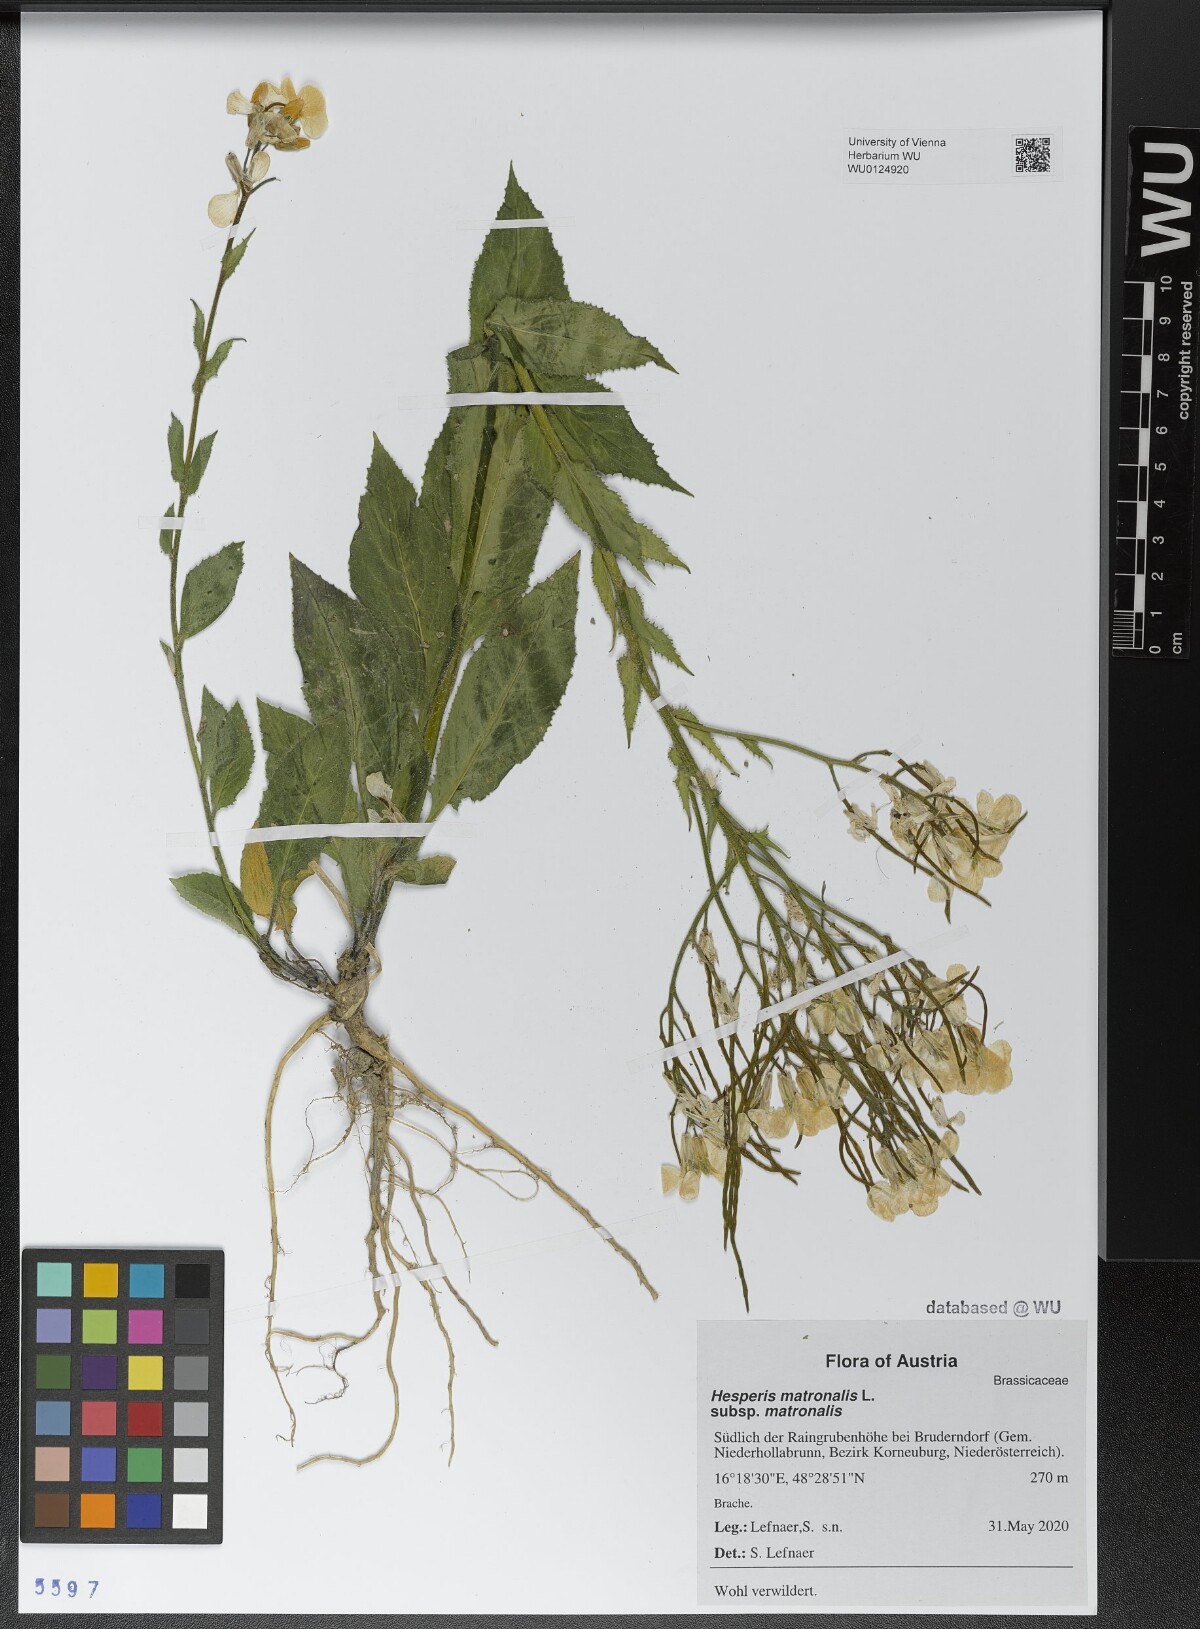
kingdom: Plantae
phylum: Tracheophyta
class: Magnoliopsida
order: Brassicales
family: Brassicaceae
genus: Hesperis
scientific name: Hesperis matronalis
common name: Dame's-violet
